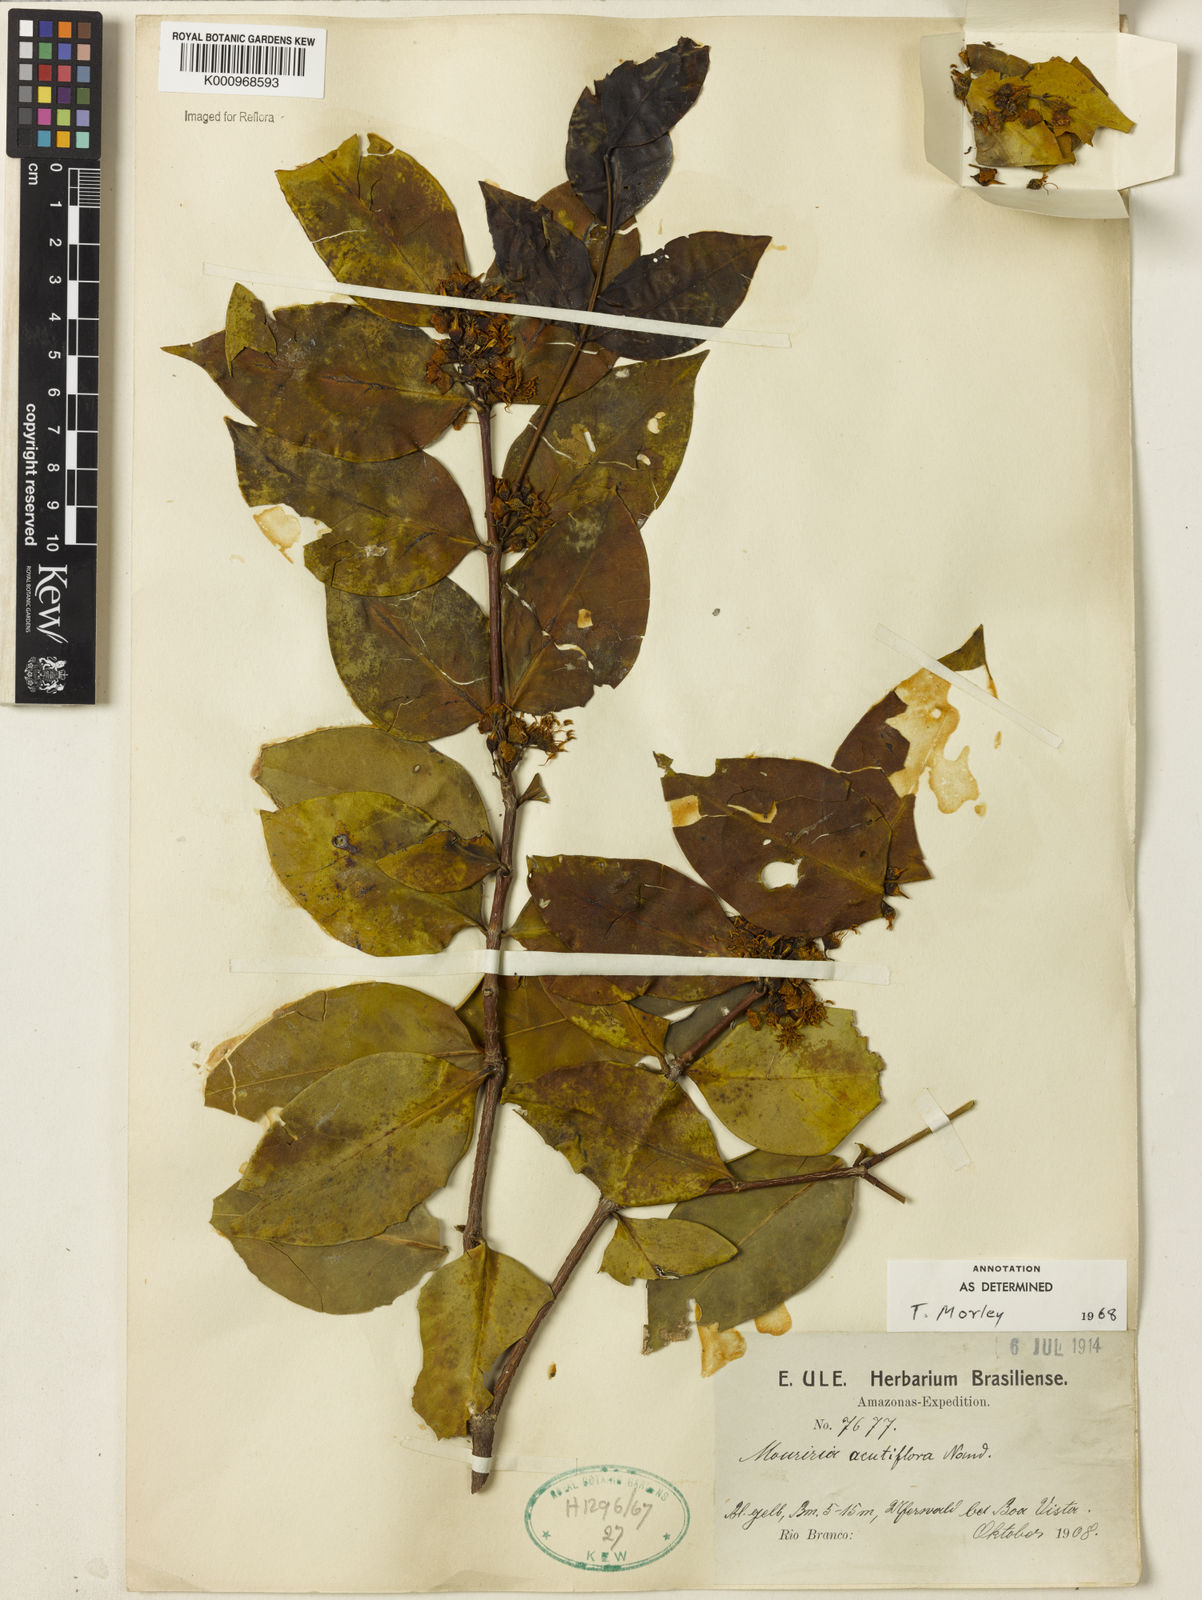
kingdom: Plantae
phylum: Tracheophyta
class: Magnoliopsida
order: Myrtales
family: Melastomataceae
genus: Mouriri
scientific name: Mouriri acutiflora
